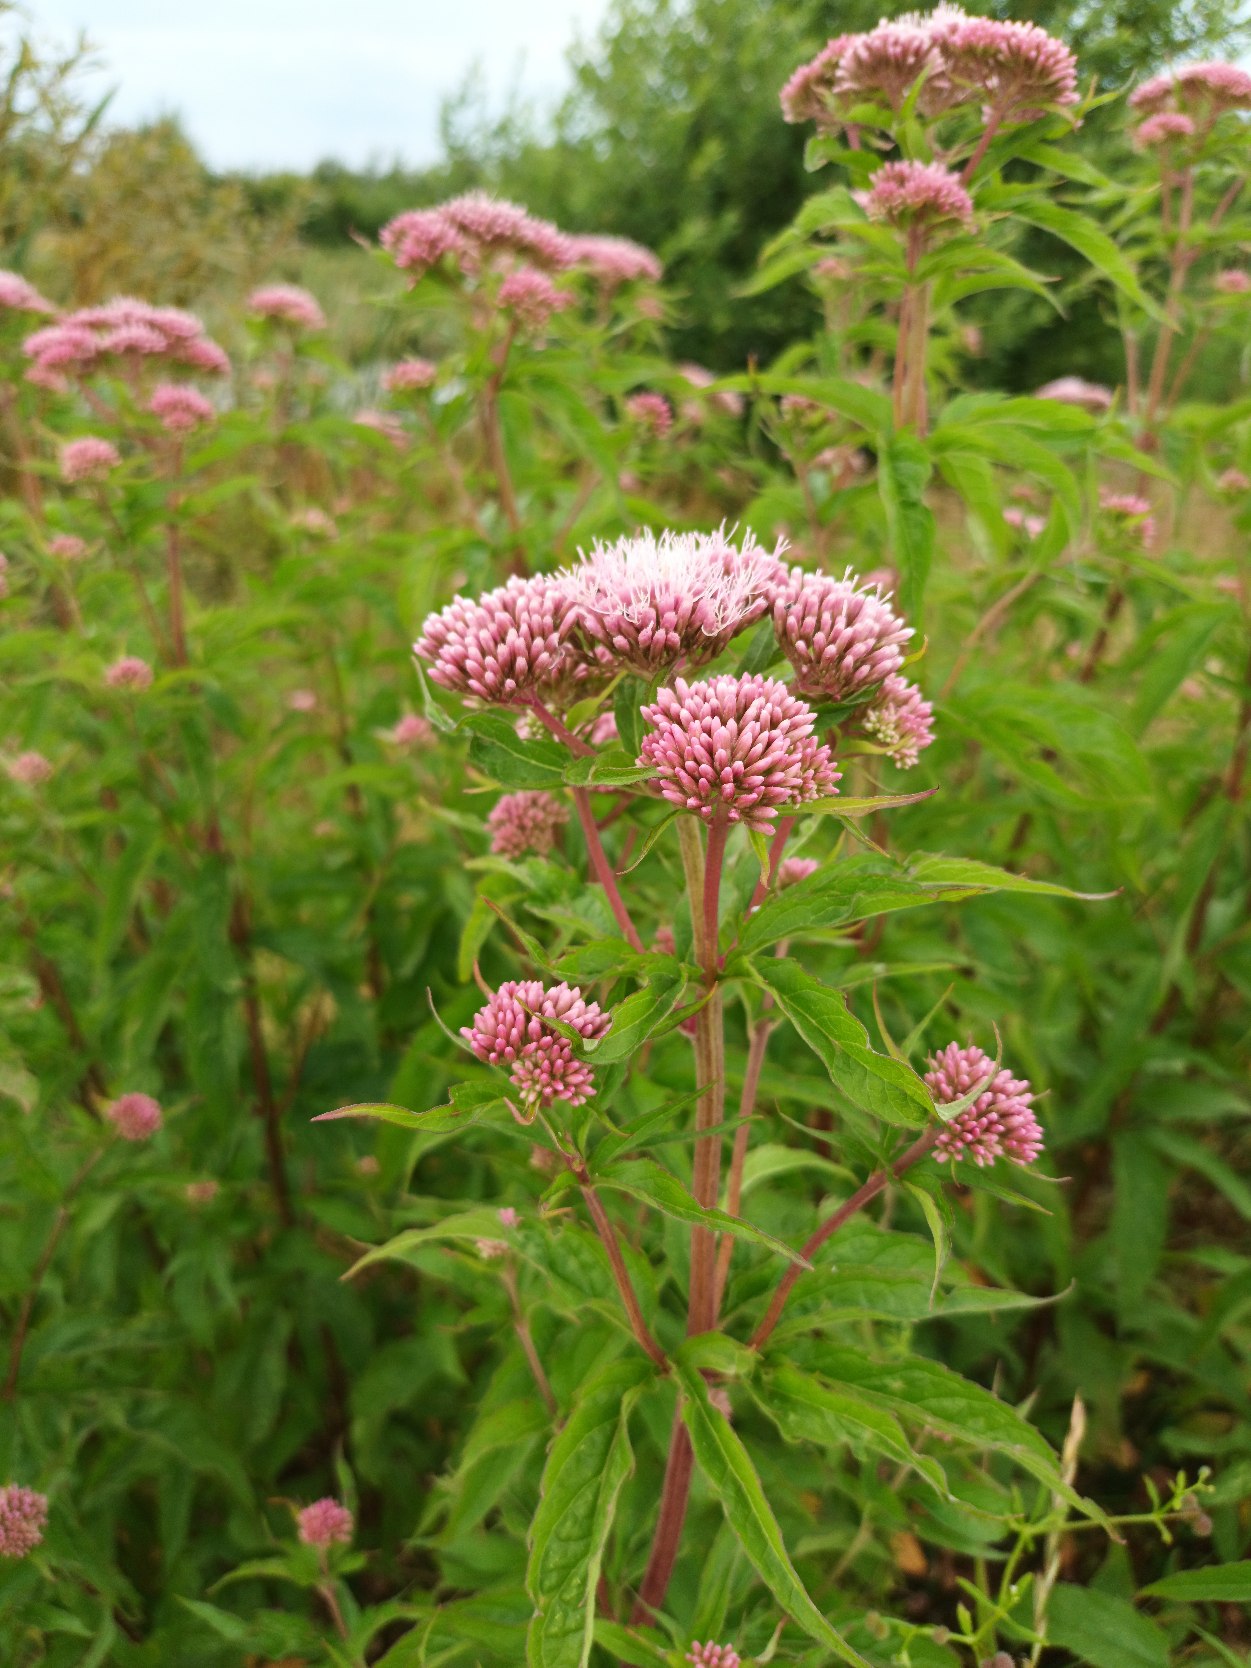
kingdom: Plantae
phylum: Tracheophyta
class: Magnoliopsida
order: Asterales
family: Asteraceae
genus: Eupatorium
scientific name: Eupatorium cannabinum
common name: Hjortetrøst
